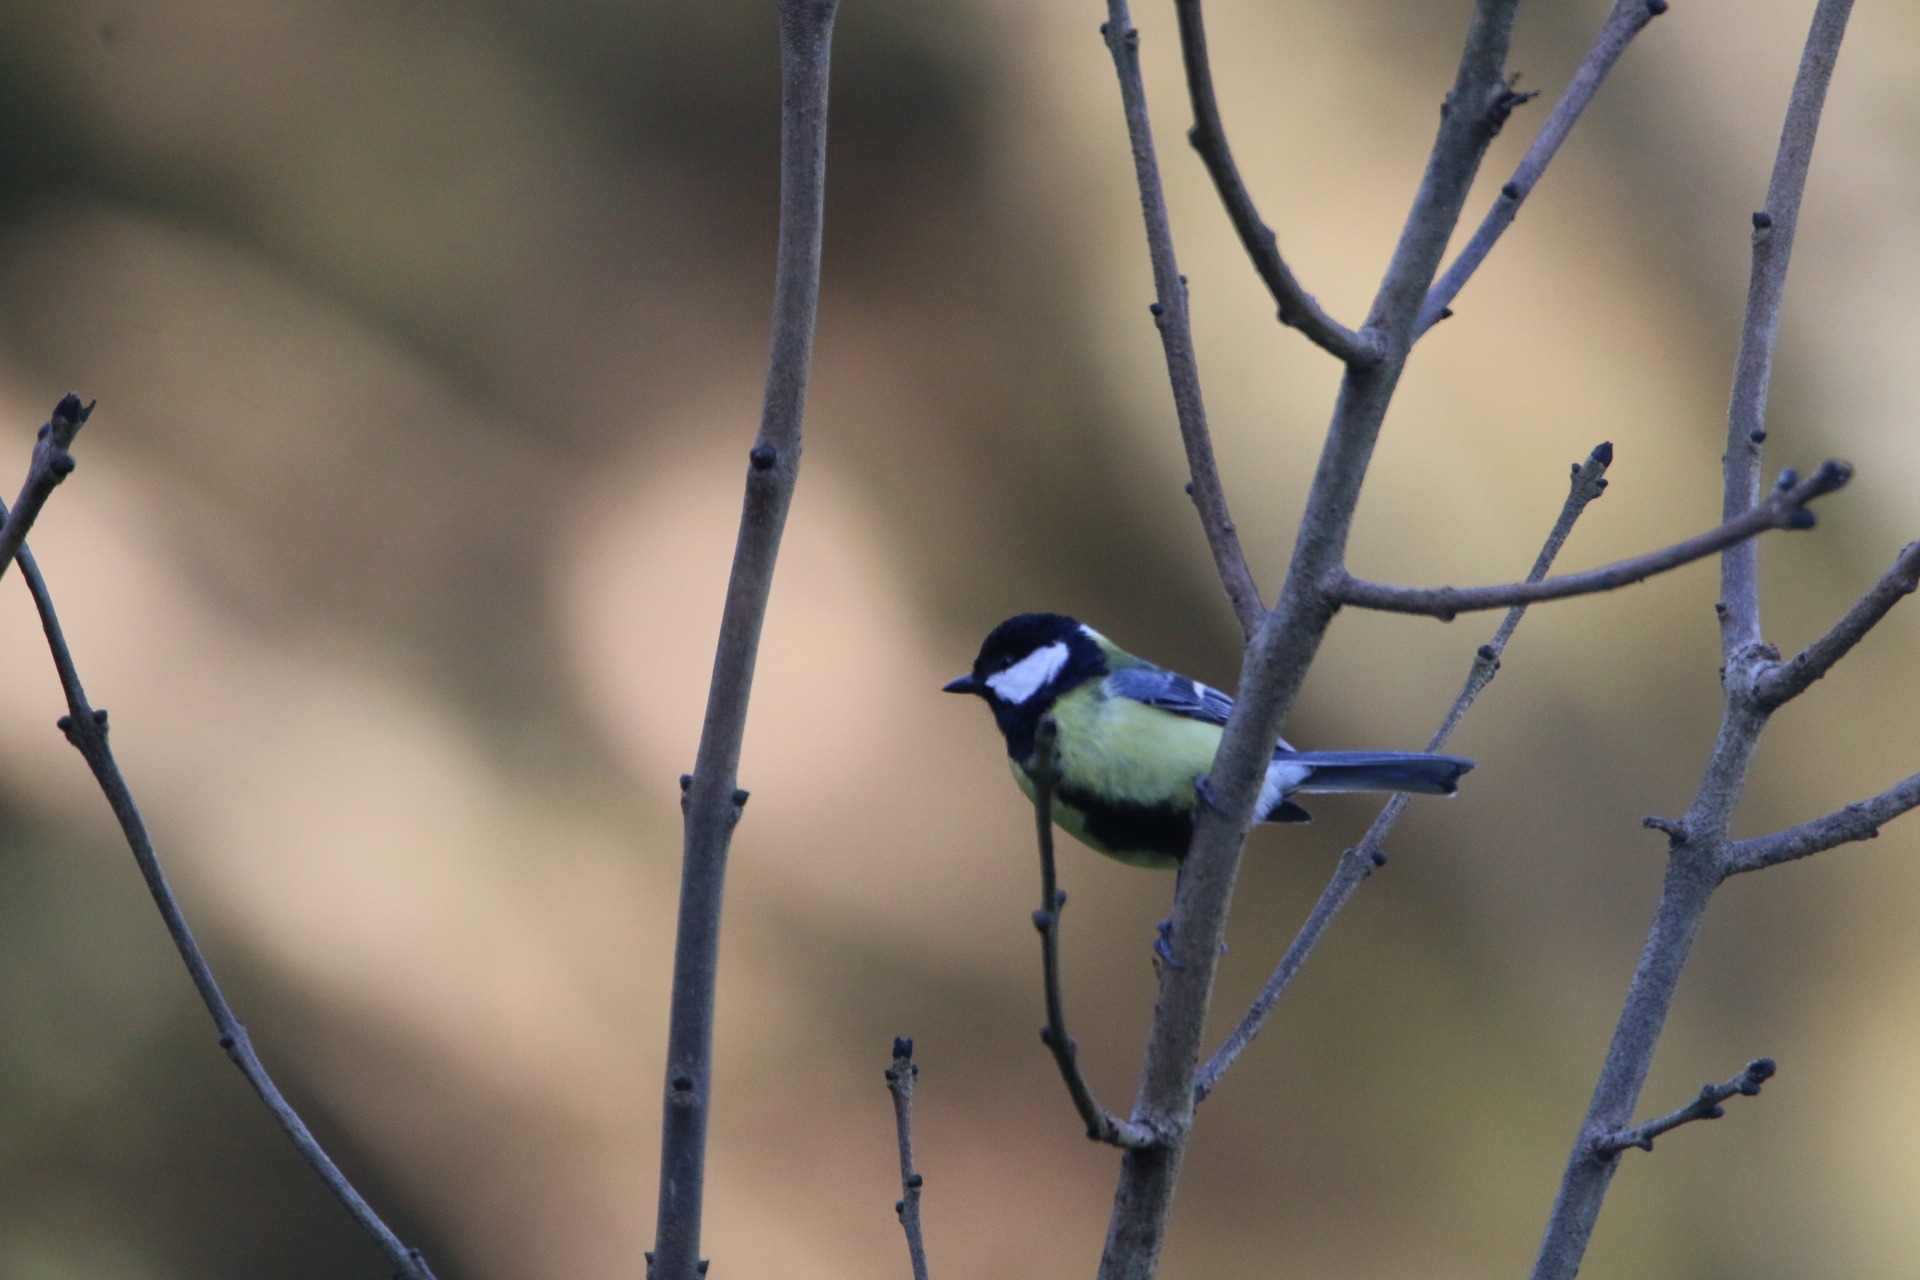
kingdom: Animalia
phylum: Chordata
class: Aves
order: Passeriformes
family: Paridae
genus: Parus
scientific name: Parus major
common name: Musvit
